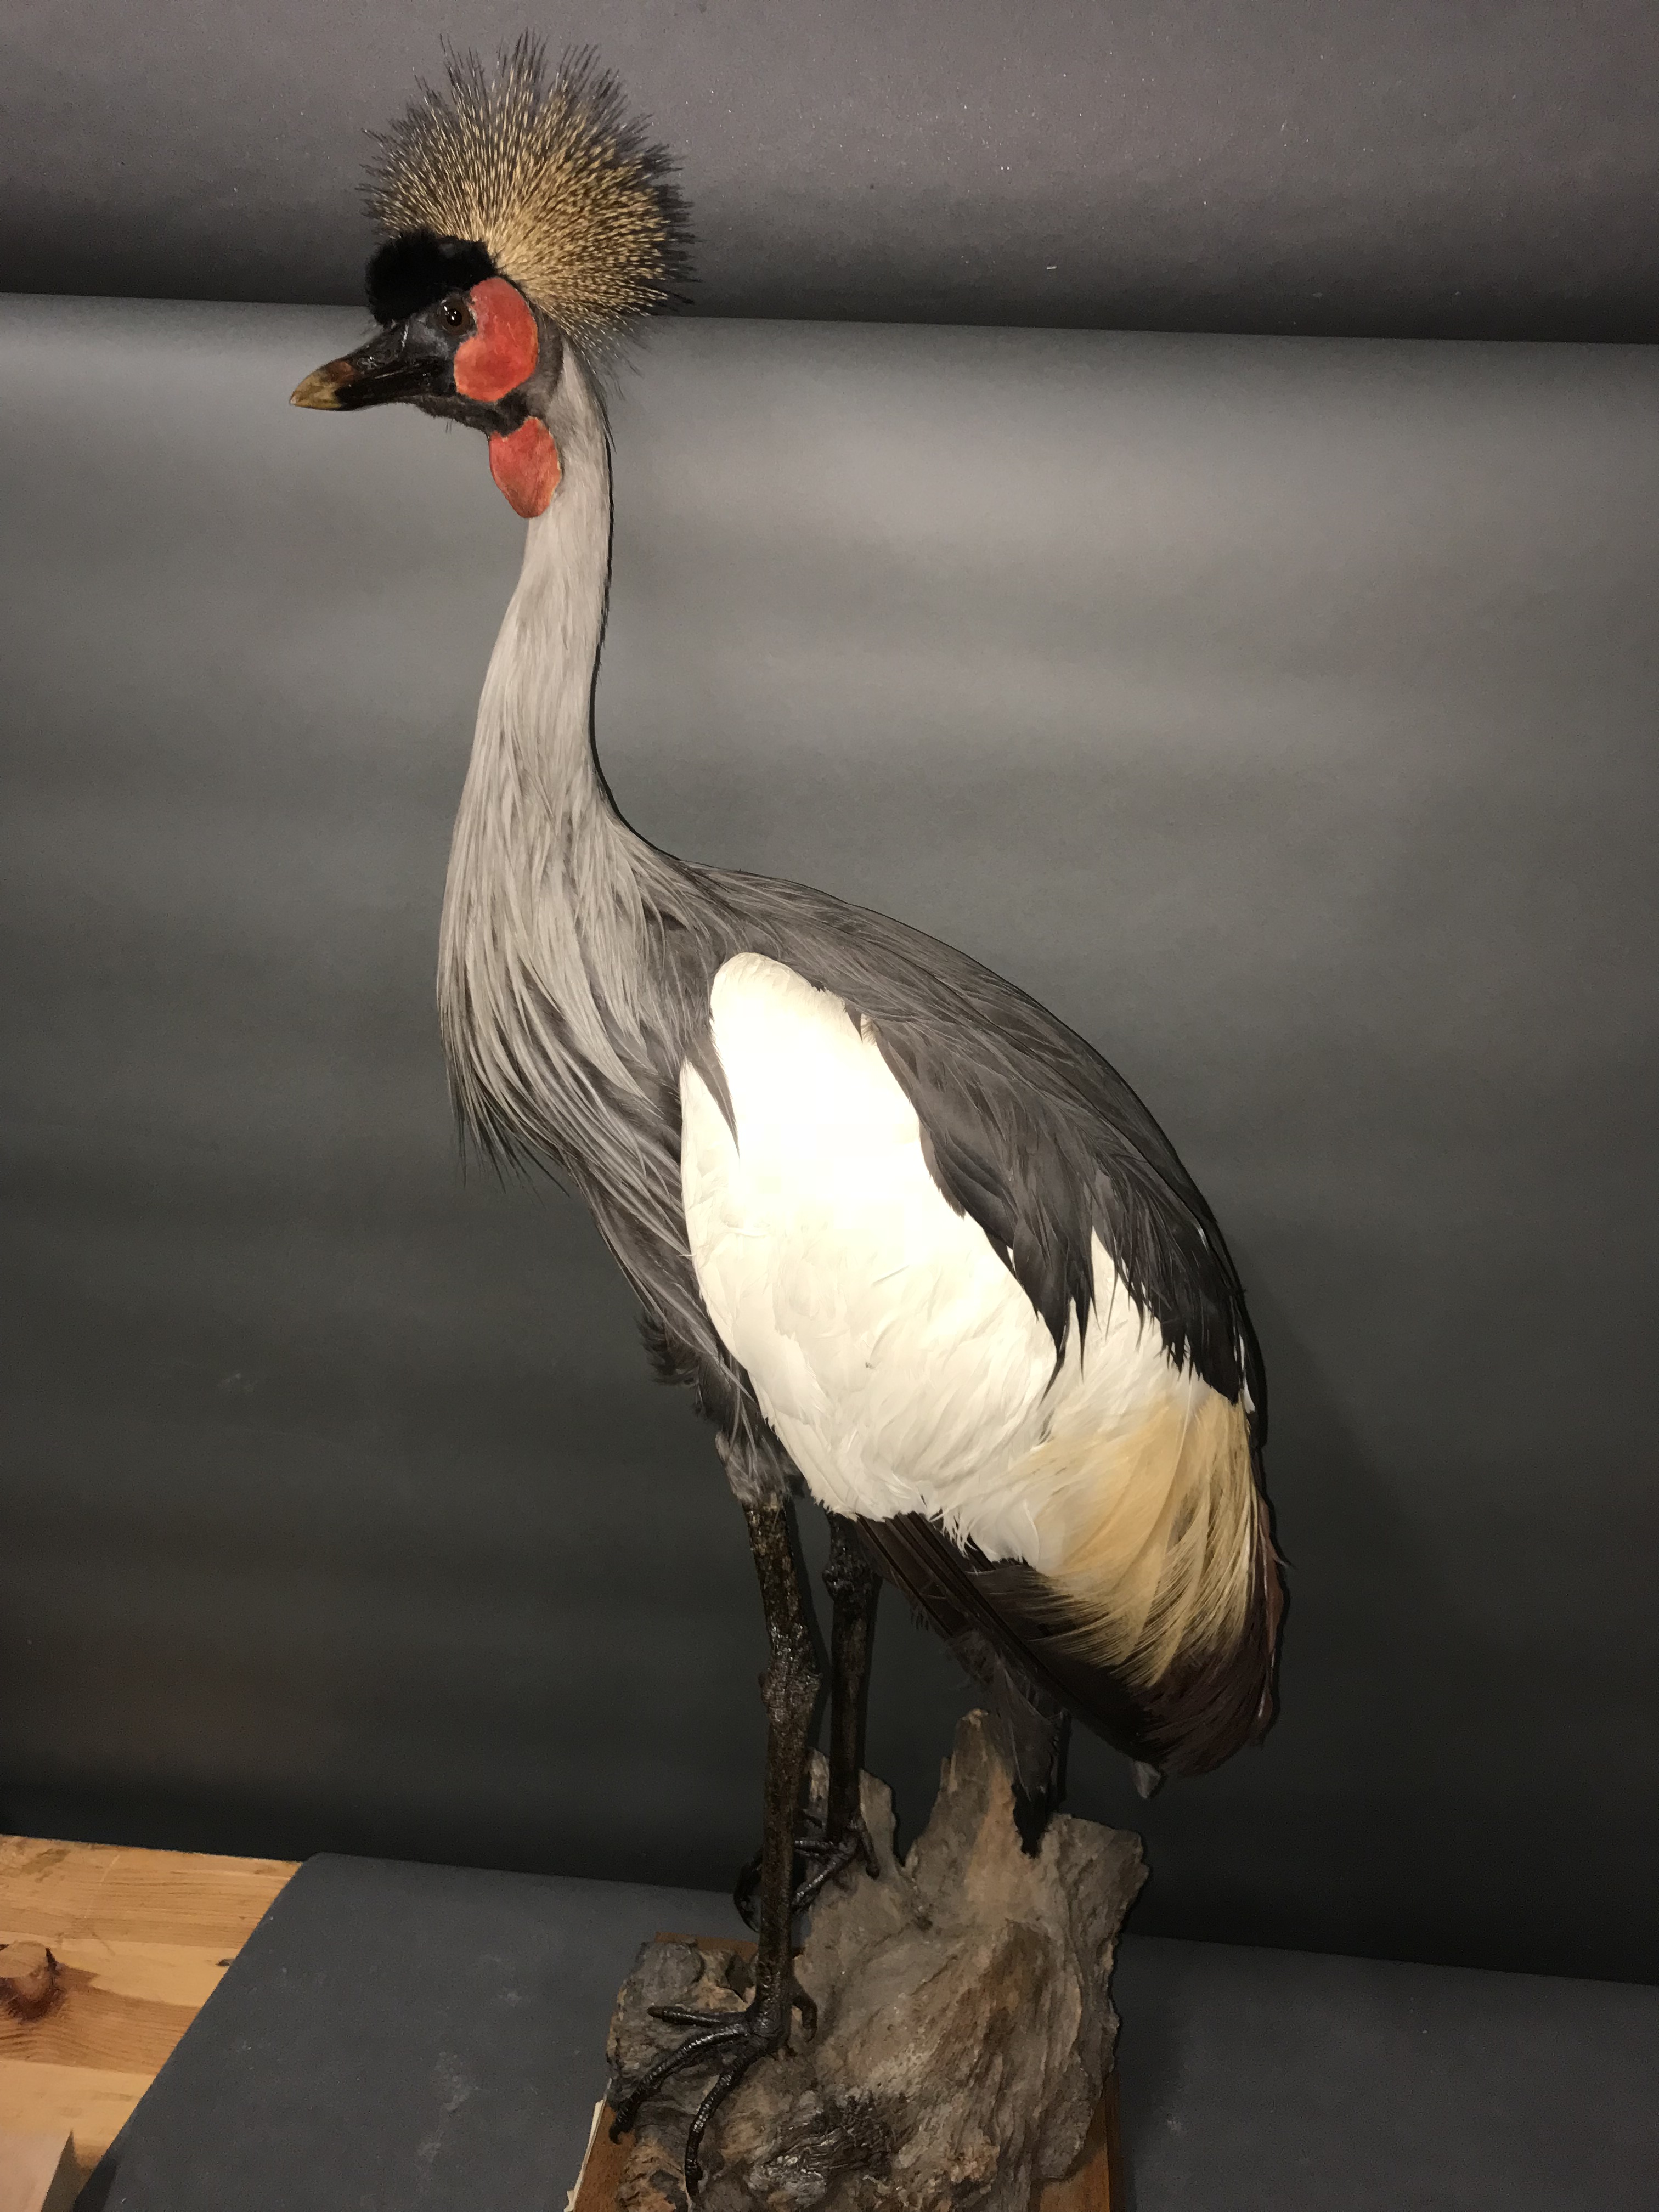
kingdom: Animalia
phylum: Chordata
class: Aves
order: Gruiformes
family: Gruidae
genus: Balearica
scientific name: Balearica regulorum
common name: Grey crowned crane
